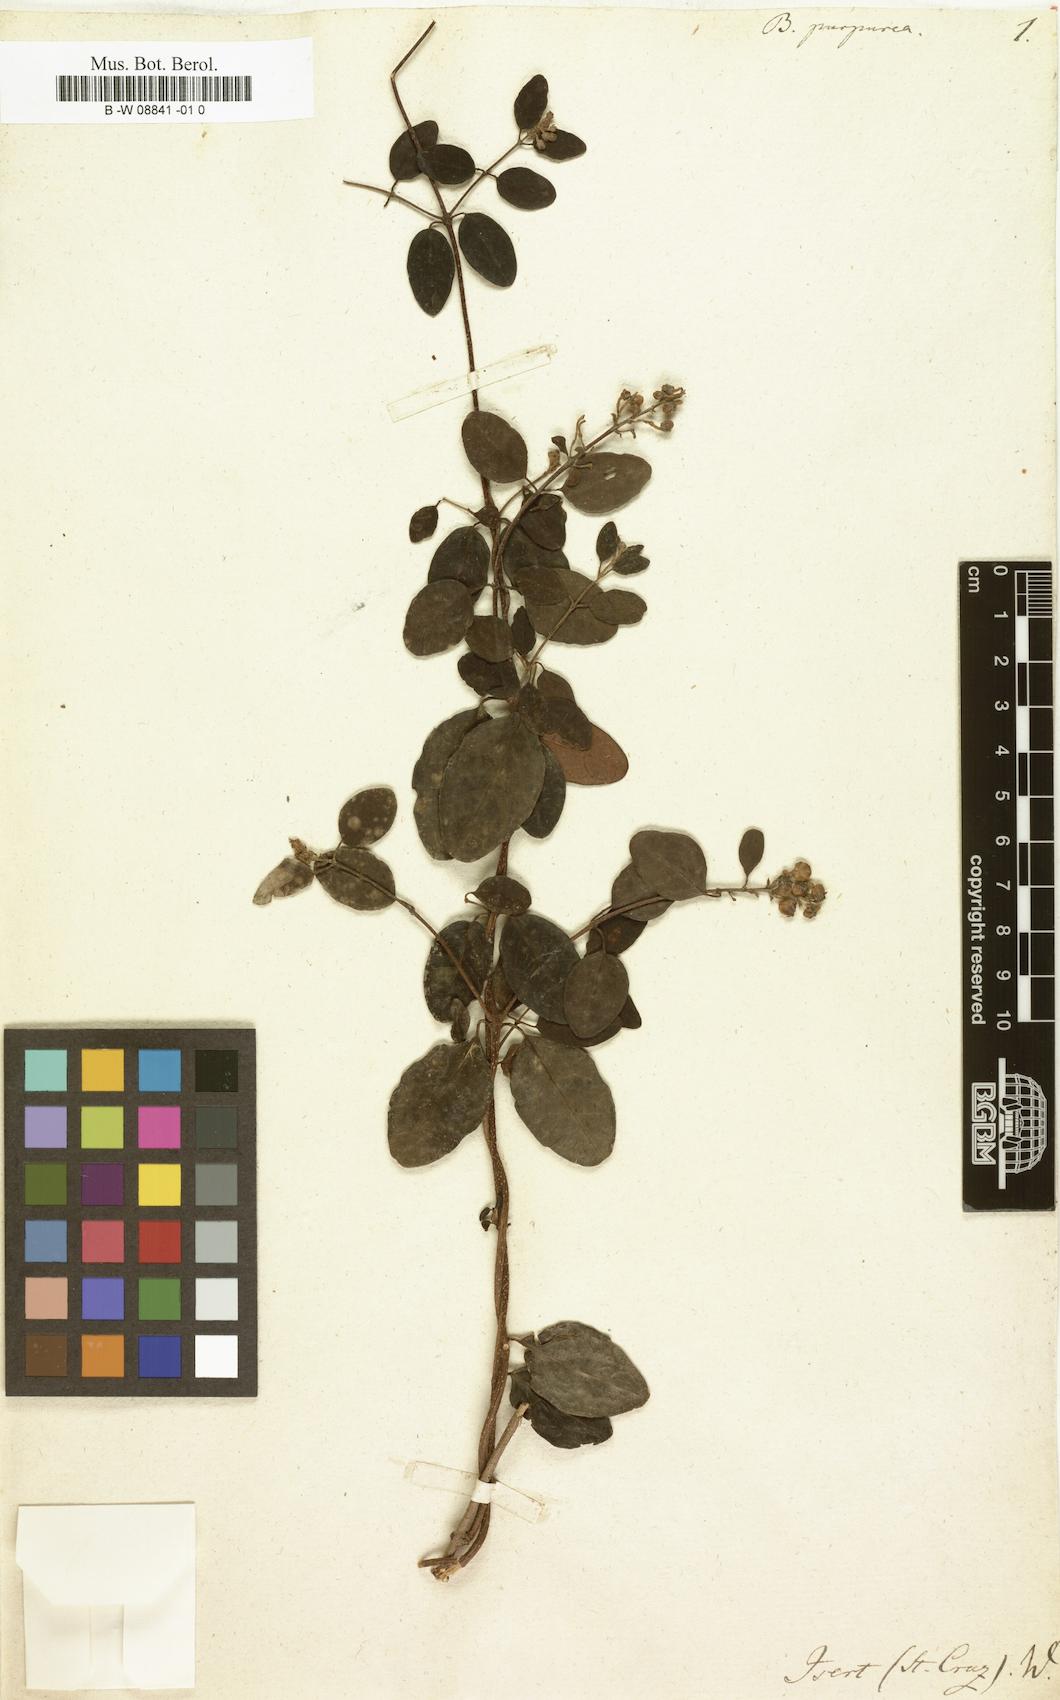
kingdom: Plantae
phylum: Tracheophyta
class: Magnoliopsida
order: Malpighiales
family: Malpighiaceae
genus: Heteropterys
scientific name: Heteropterys purpurea
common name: Bull withe
